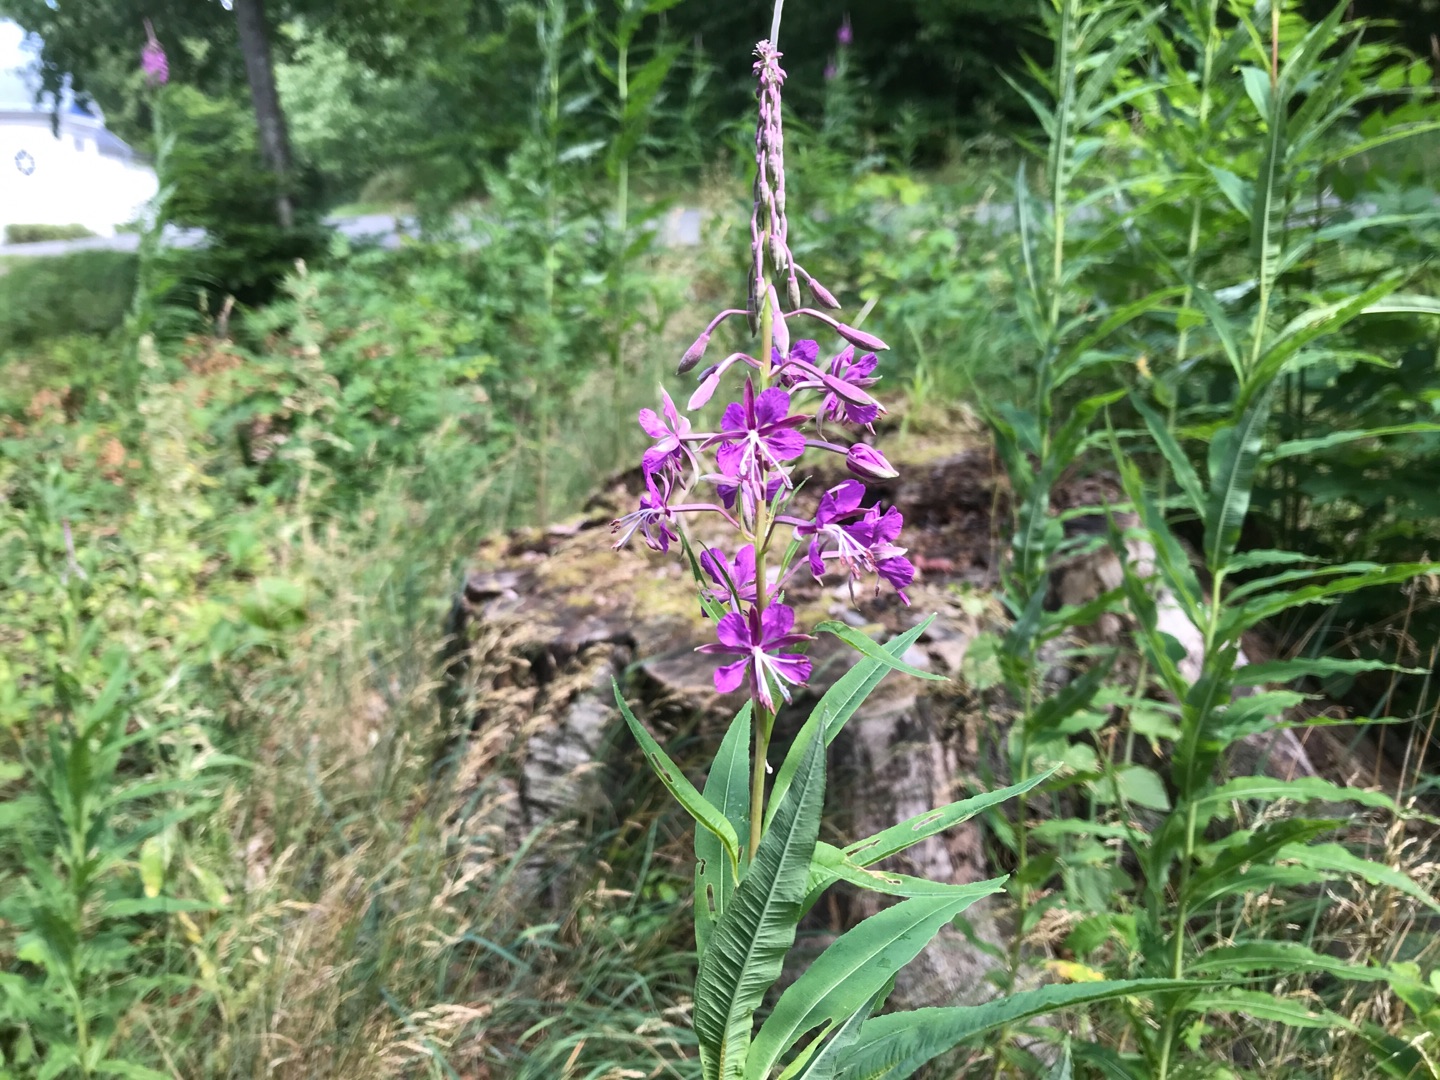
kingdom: Plantae
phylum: Tracheophyta
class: Magnoliopsida
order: Myrtales
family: Onagraceae
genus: Chamaenerion
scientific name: Chamaenerion angustifolium
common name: Gederams
